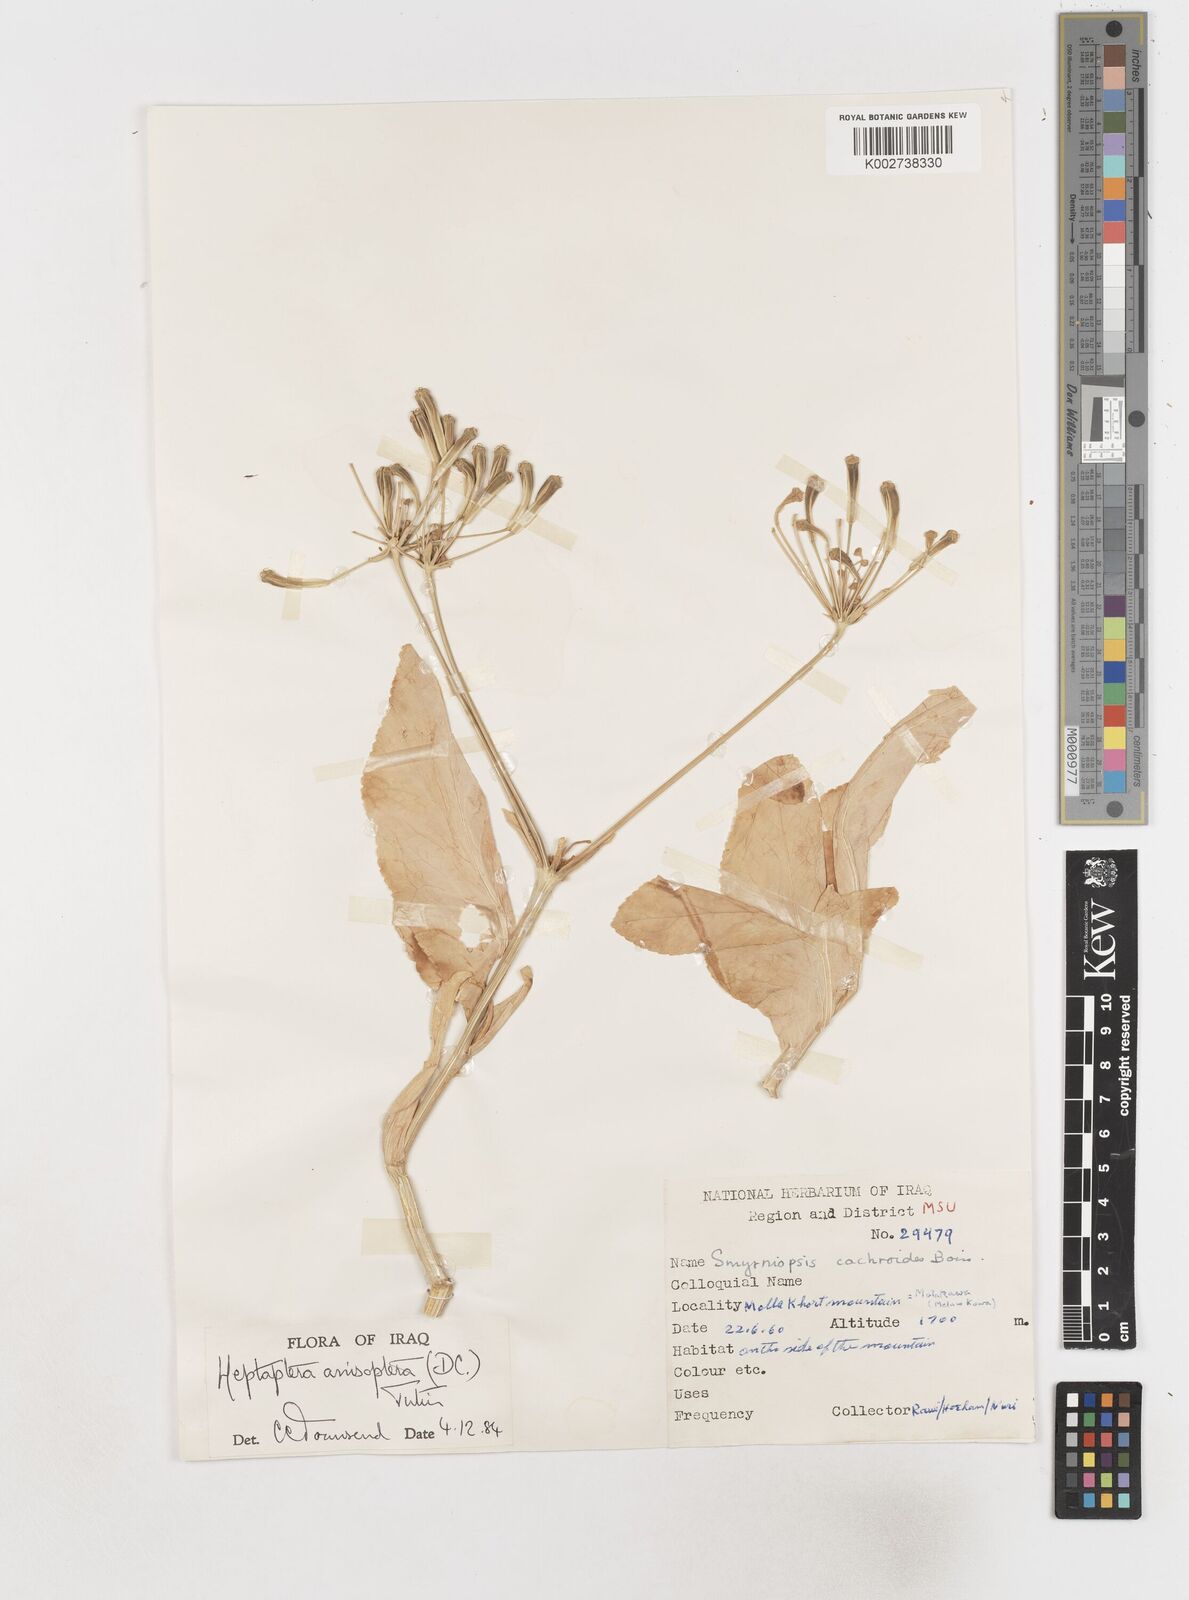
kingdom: Plantae
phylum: Tracheophyta
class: Magnoliopsida
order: Apiales
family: Apiaceae
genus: Heptaptera
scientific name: Heptaptera
